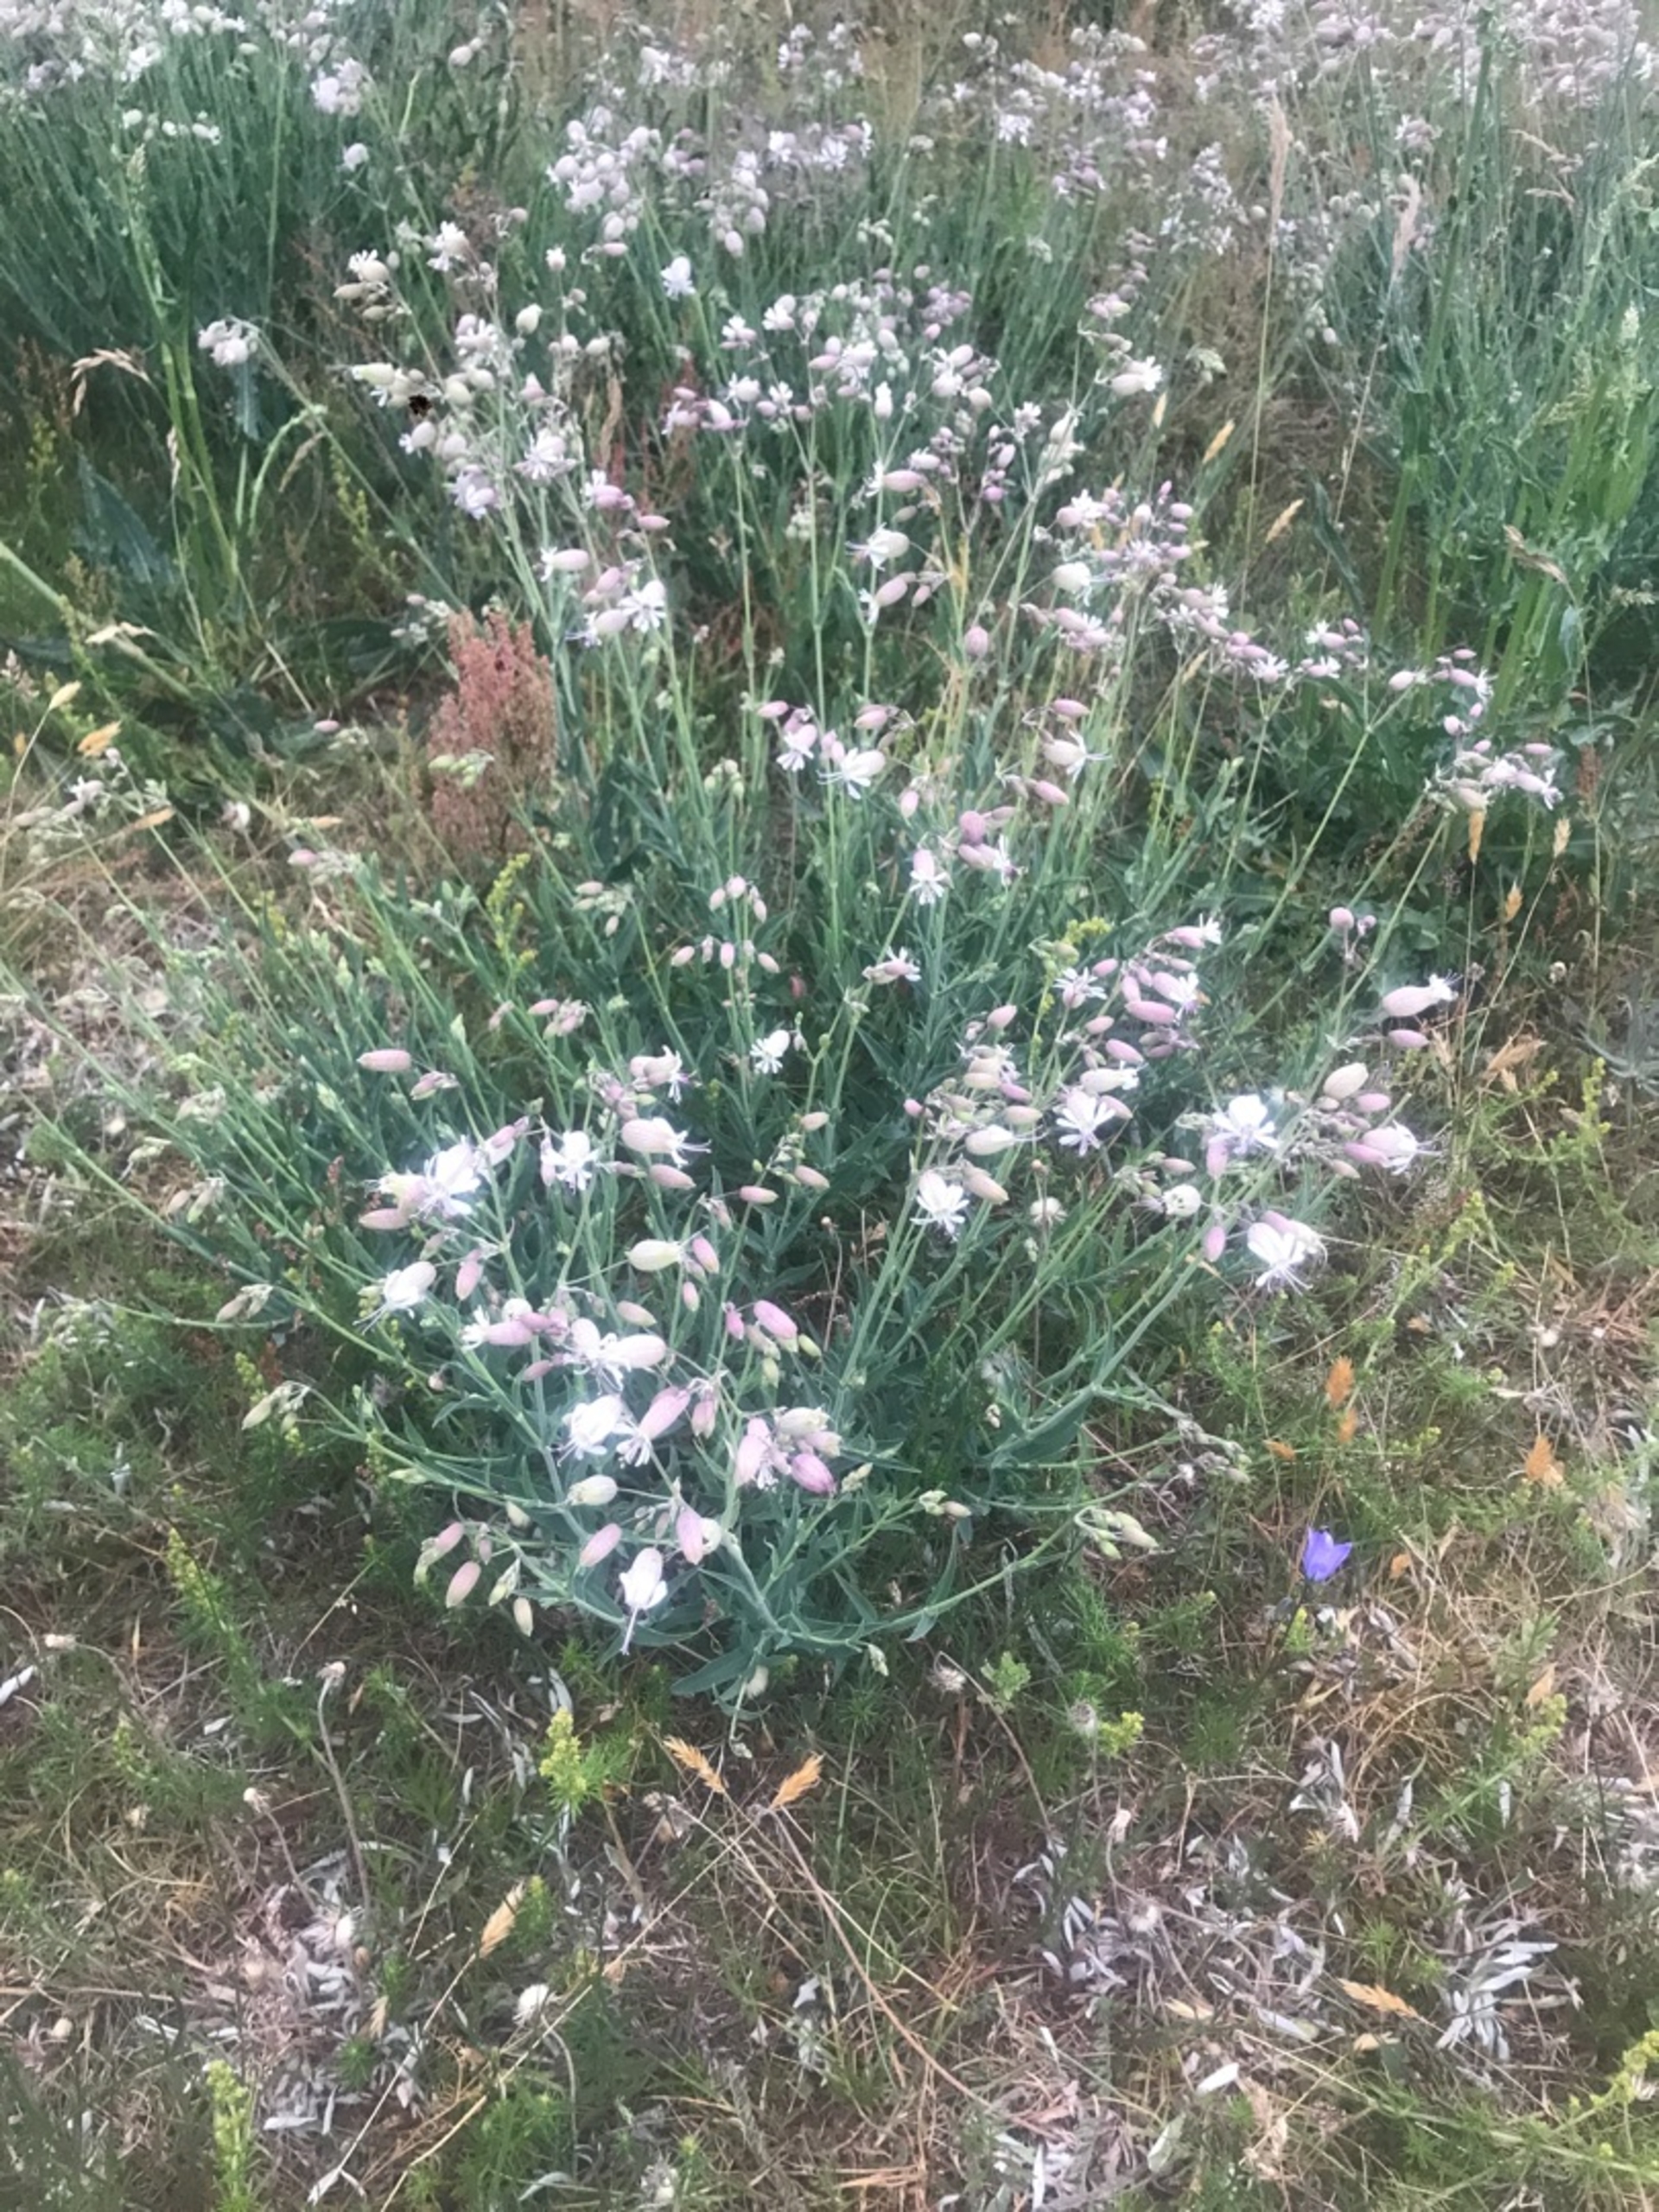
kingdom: Plantae
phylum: Tracheophyta
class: Magnoliopsida
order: Caryophyllales
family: Caryophyllaceae
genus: Silene
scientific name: Silene vulgaris
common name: Blæresmælde
